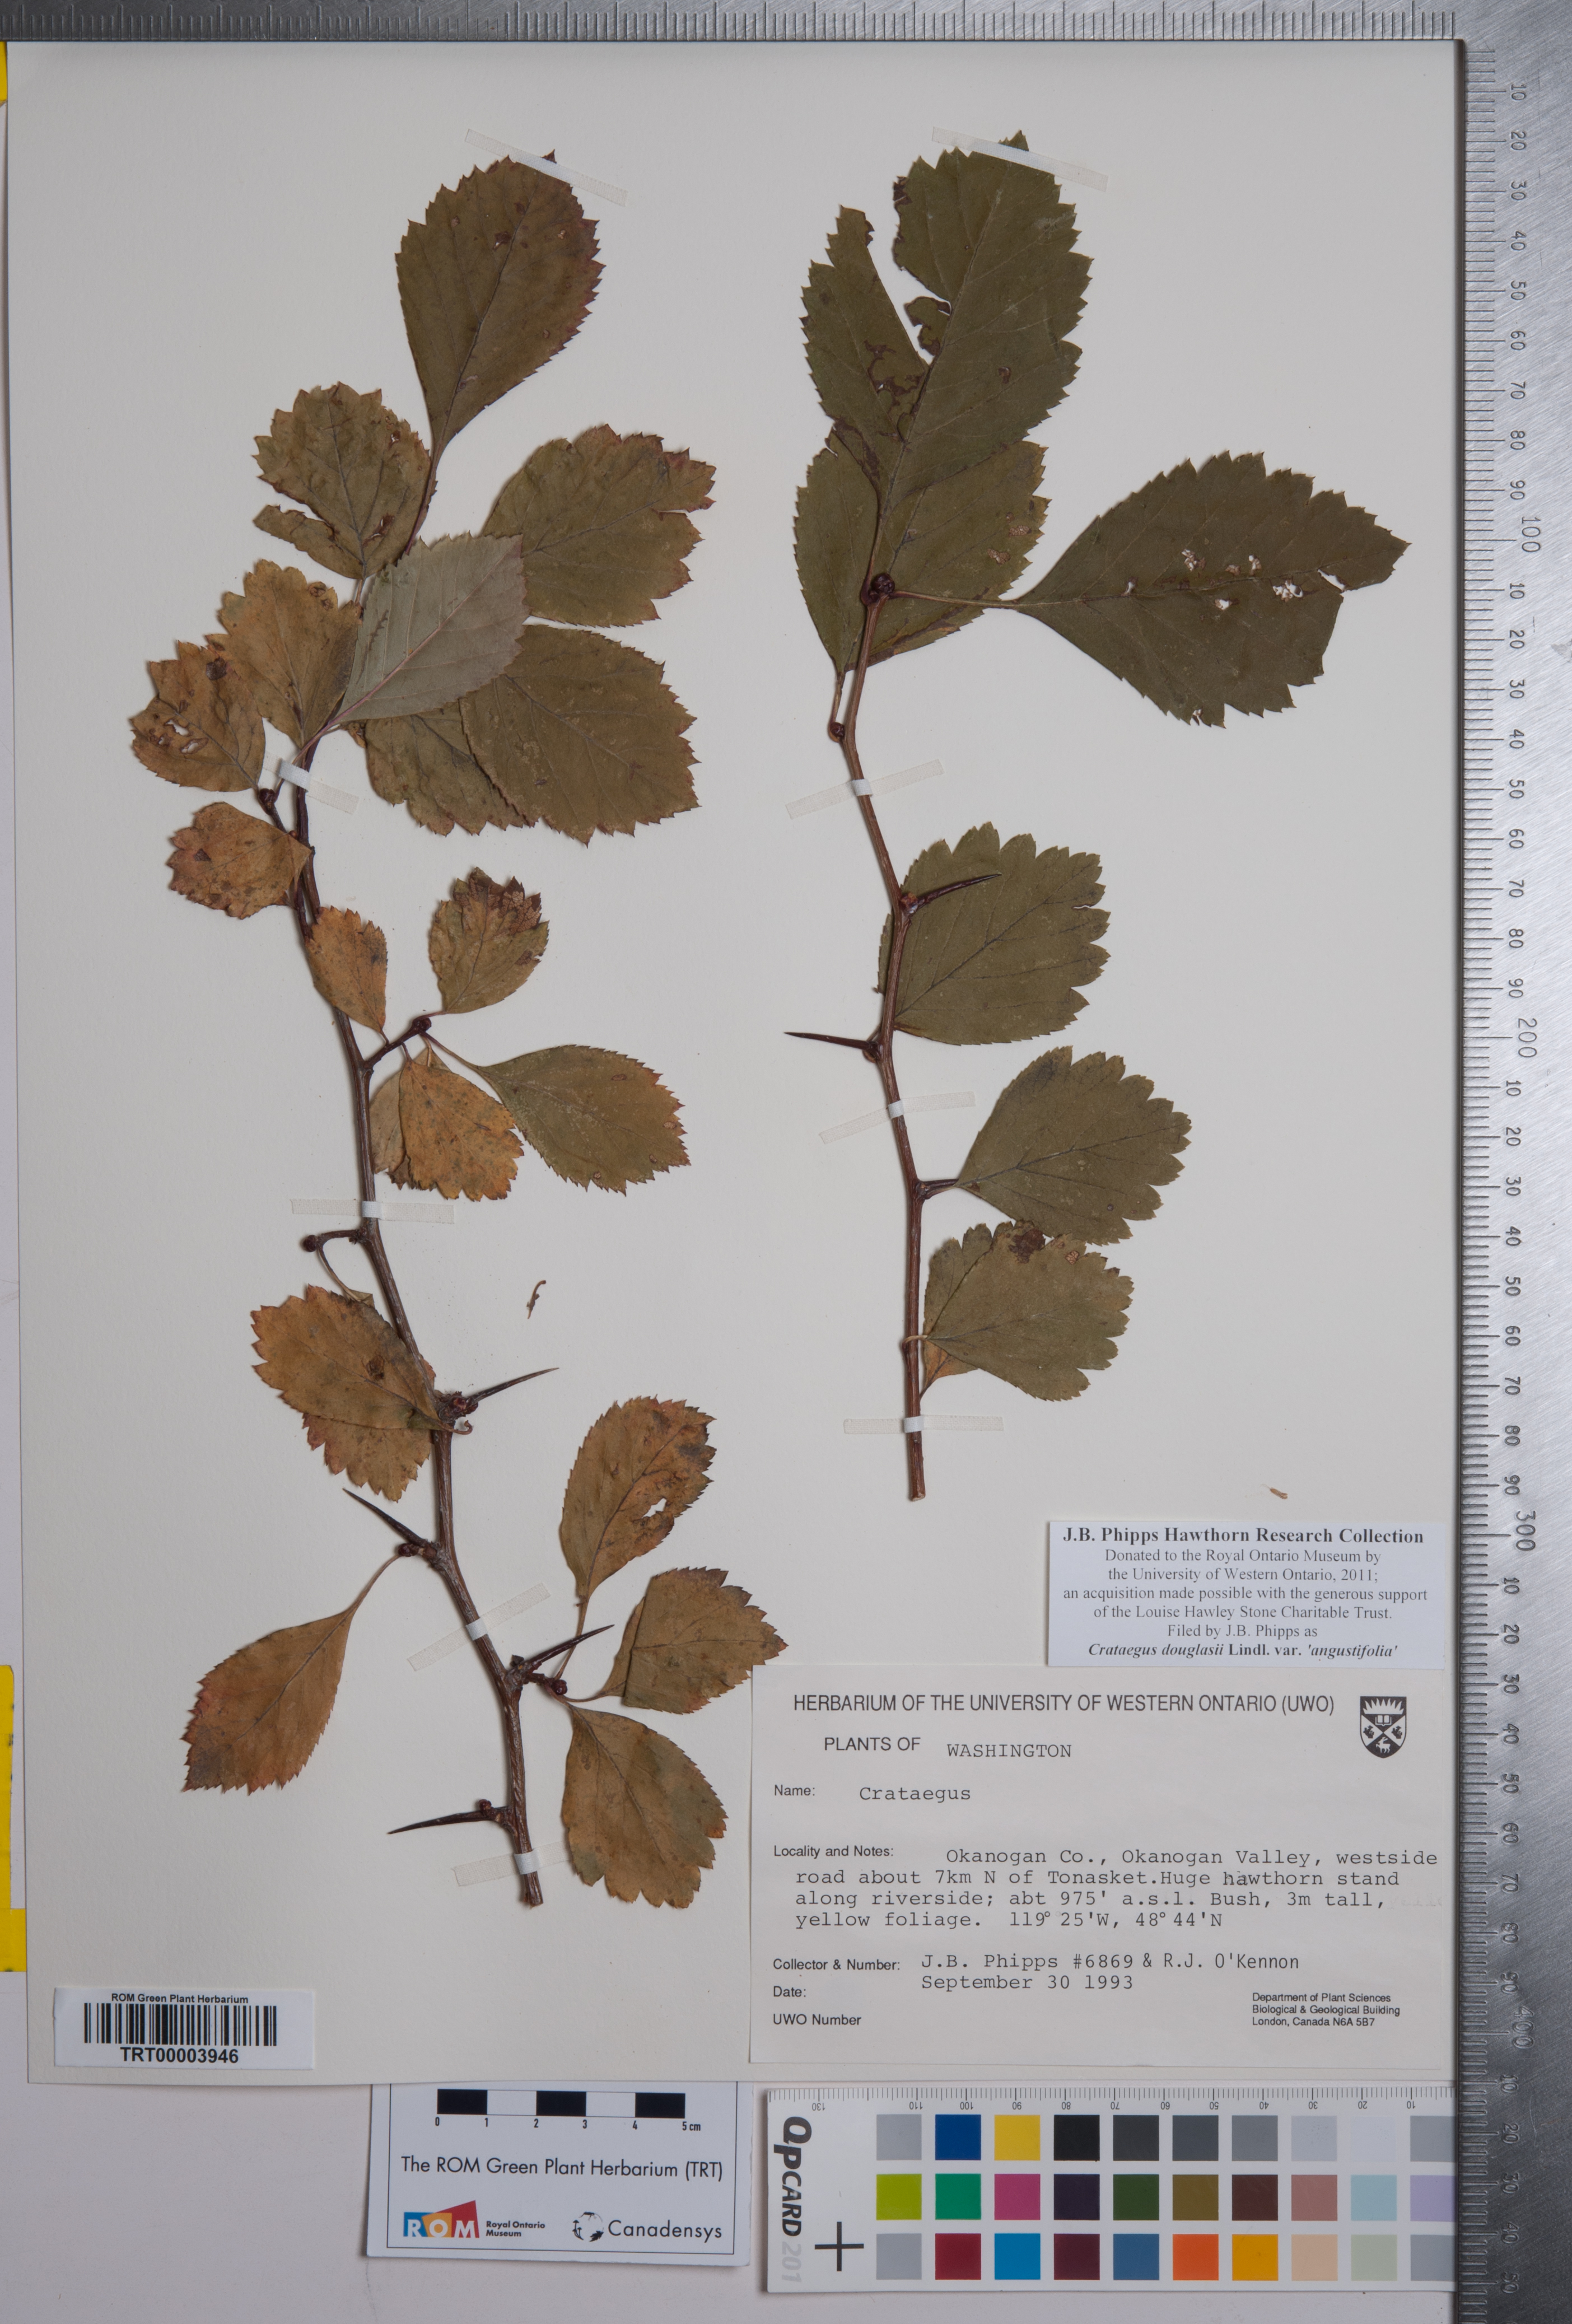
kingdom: Plantae
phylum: Tracheophyta
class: Magnoliopsida
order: Rosales
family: Rosaceae
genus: Crataegus
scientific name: Crataegus douglasii
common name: Black hawthorn
